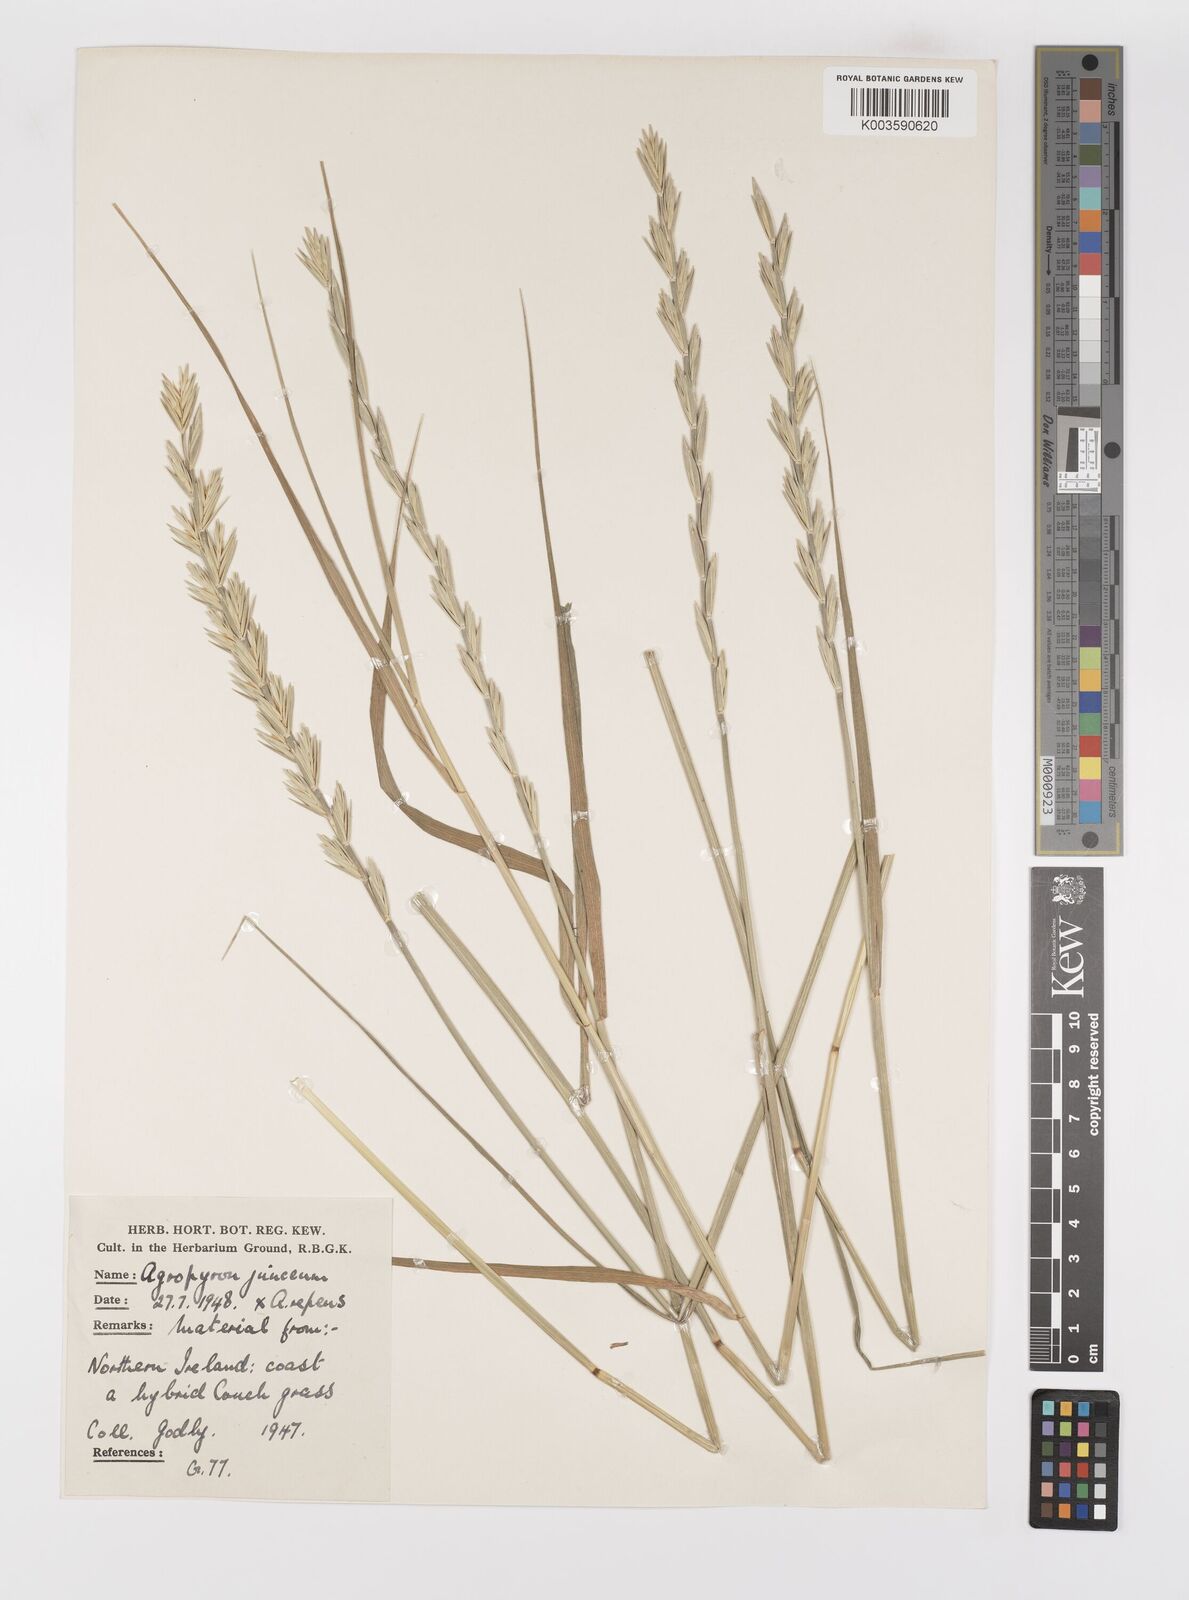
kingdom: Plantae
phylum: Tracheophyta
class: Liliopsida
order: Poales
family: Poaceae
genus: Thinopyrum
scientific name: Thinopyrum junceum
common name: Russian wheatgrass
